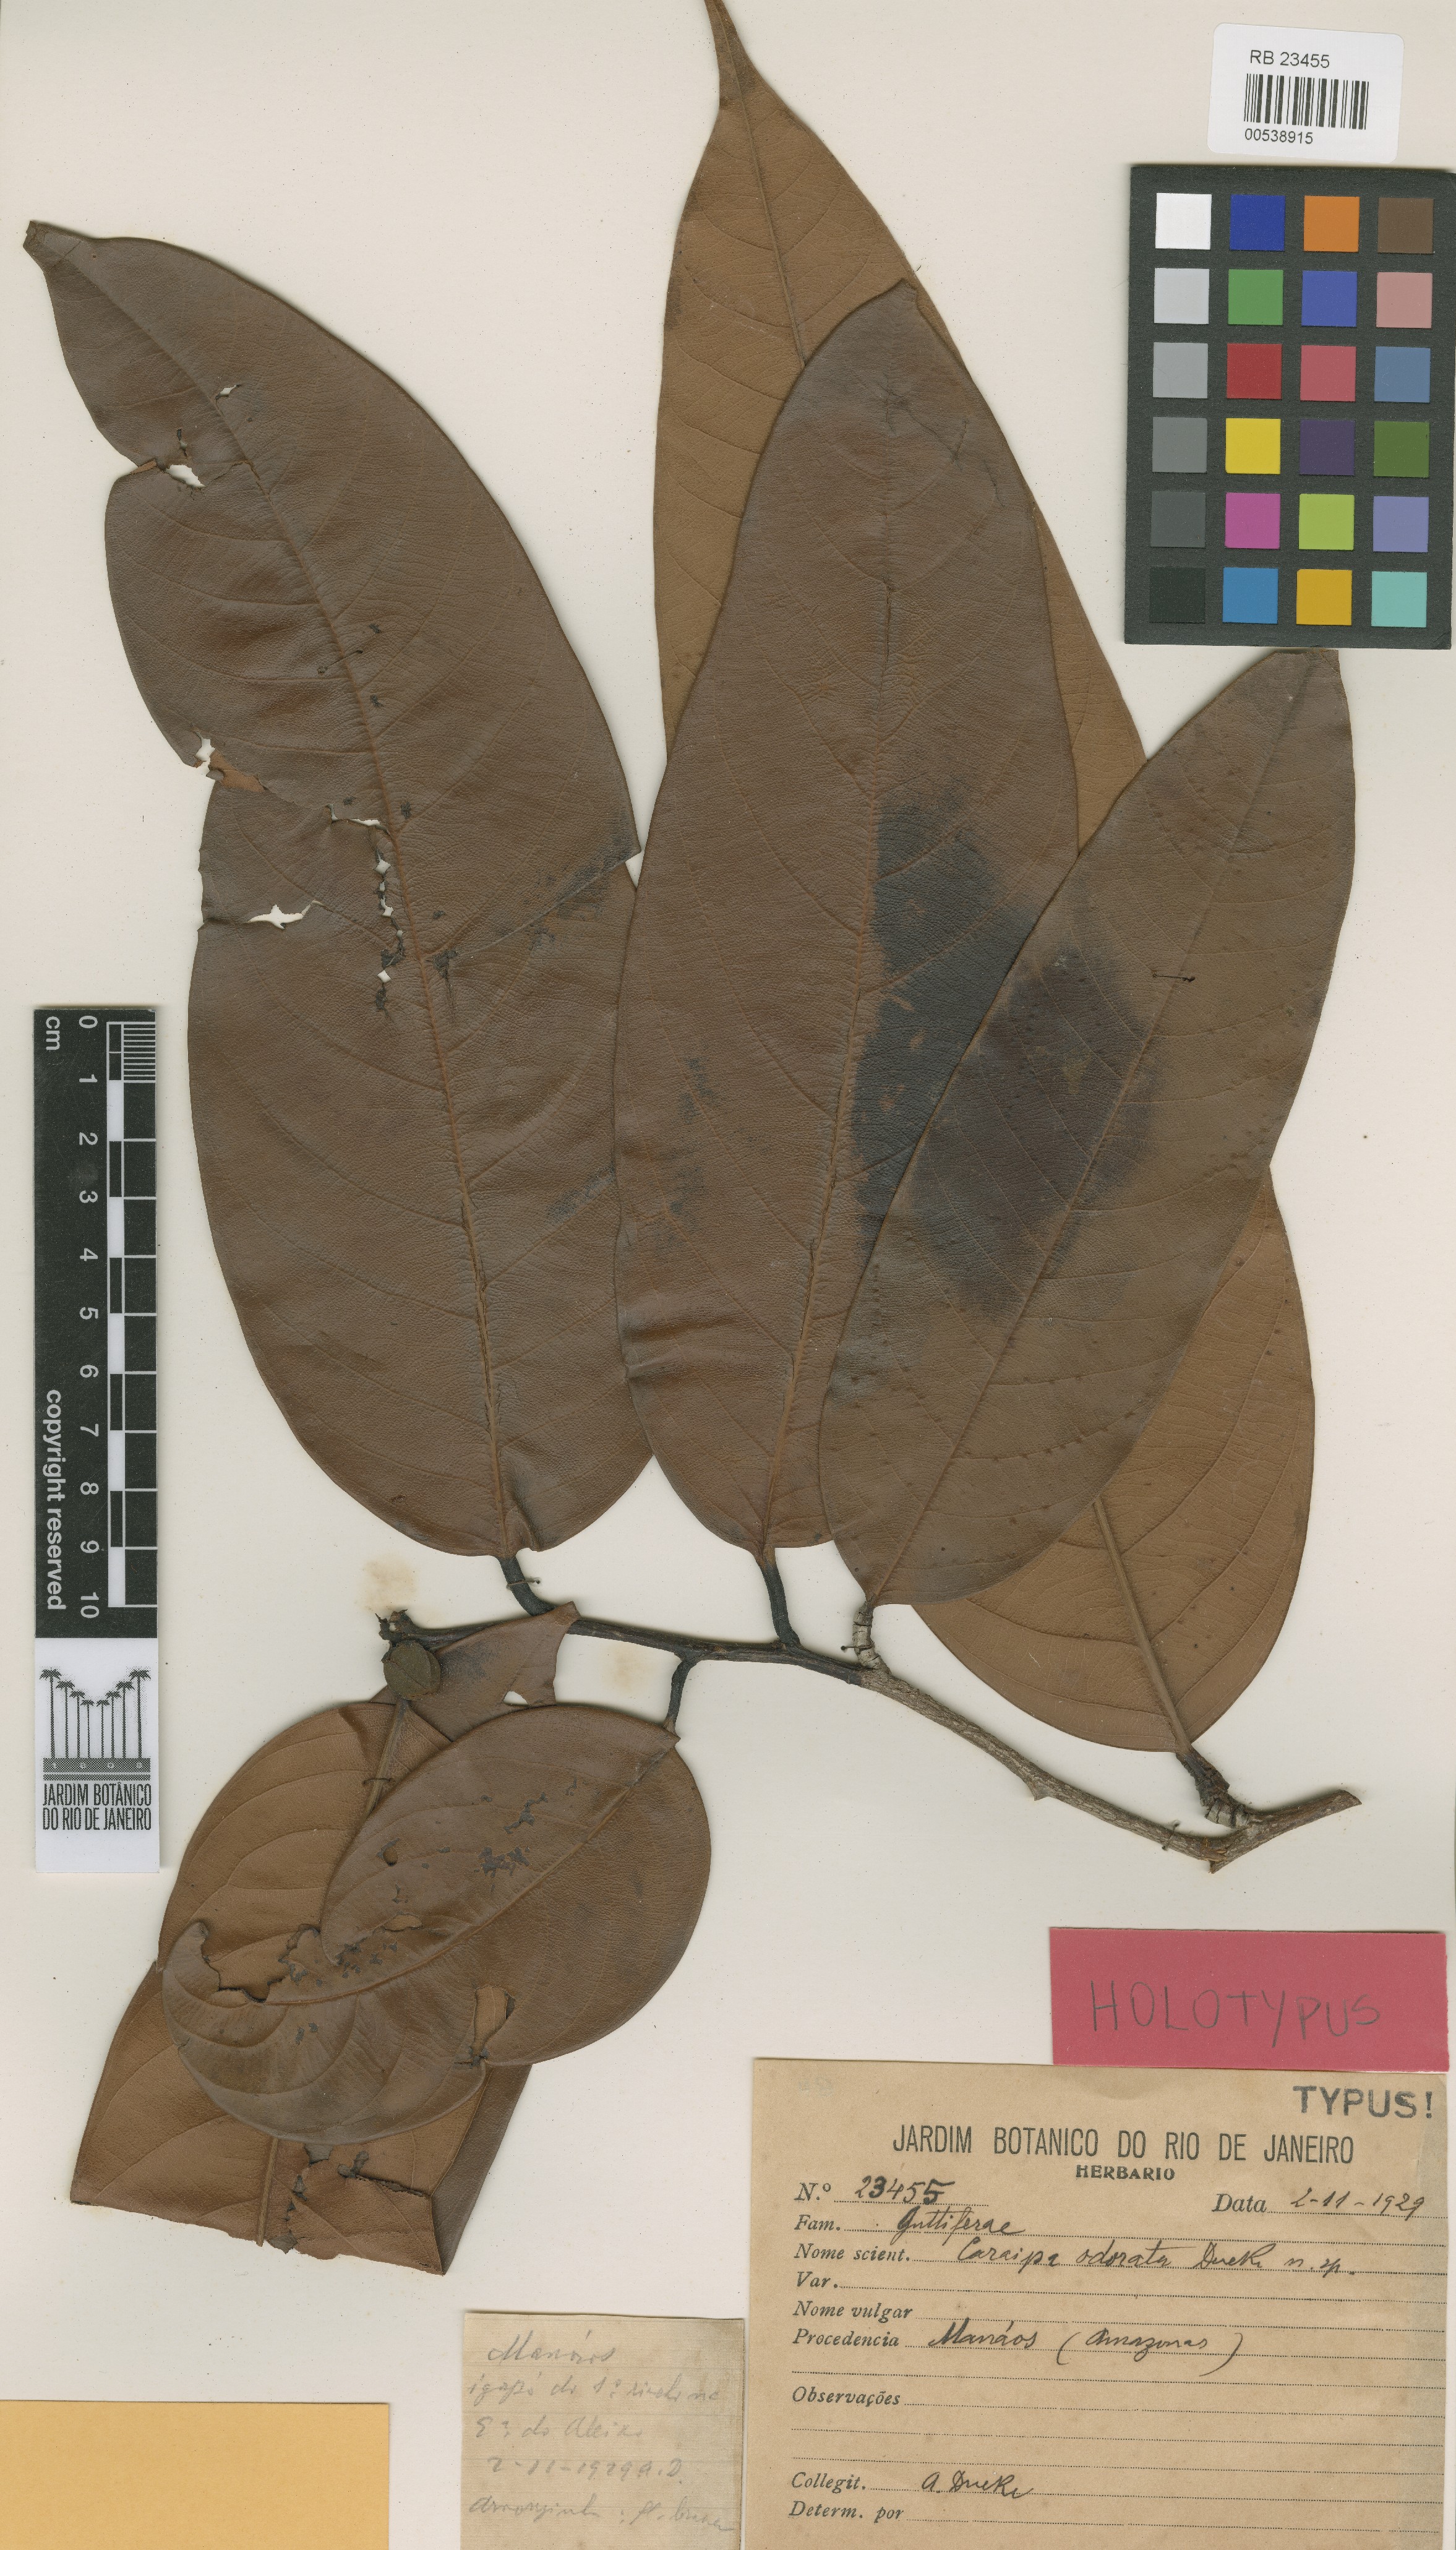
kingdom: Plantae
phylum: Tracheophyta
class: Magnoliopsida
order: Malpighiales
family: Calophyllaceae
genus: Caraipa
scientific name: Caraipa odorata
